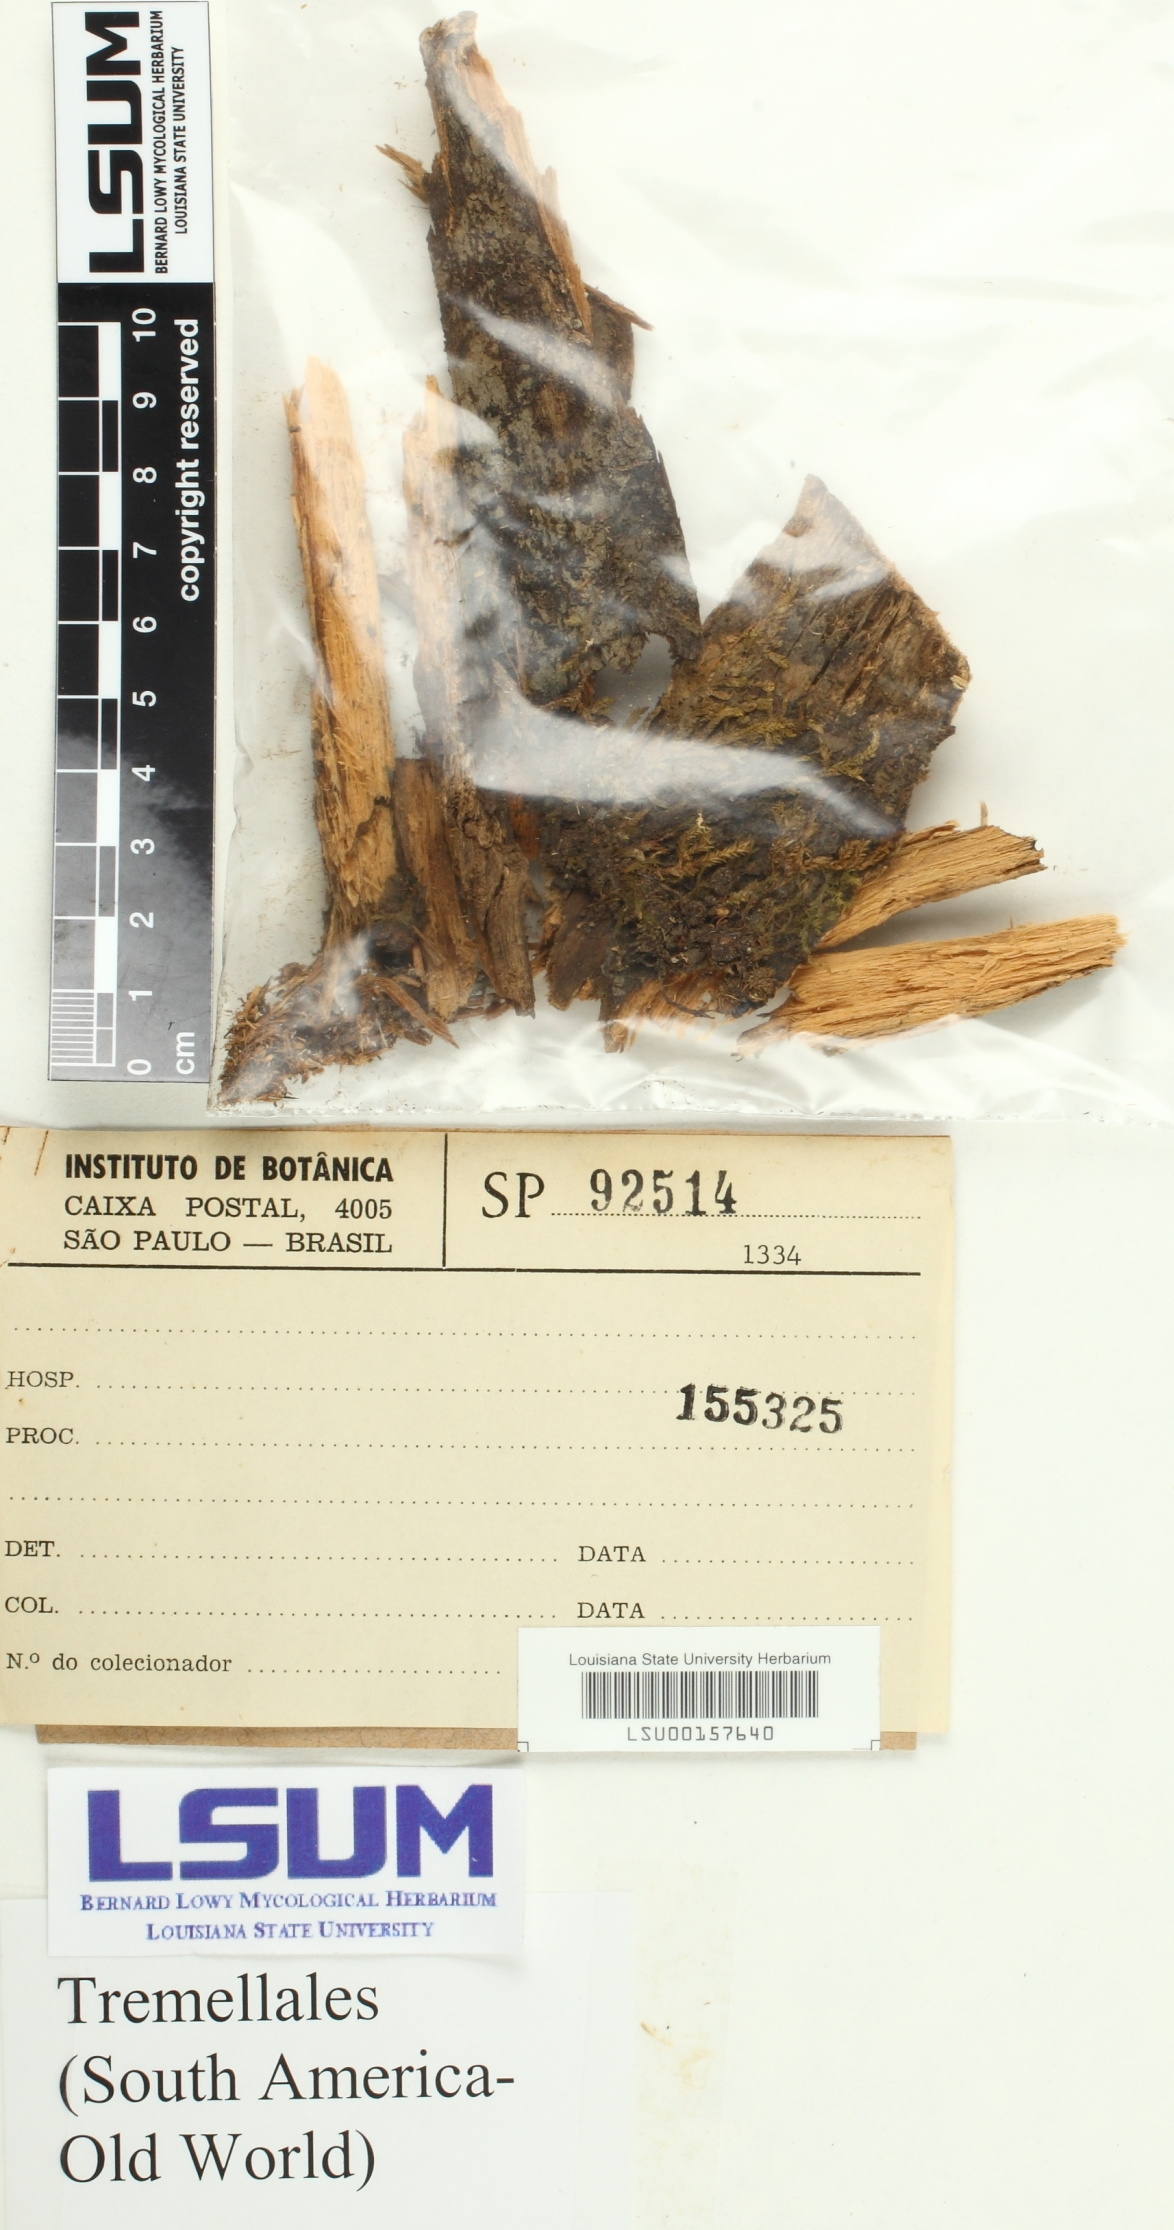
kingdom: Fungi
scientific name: Fungi
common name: Fungi
